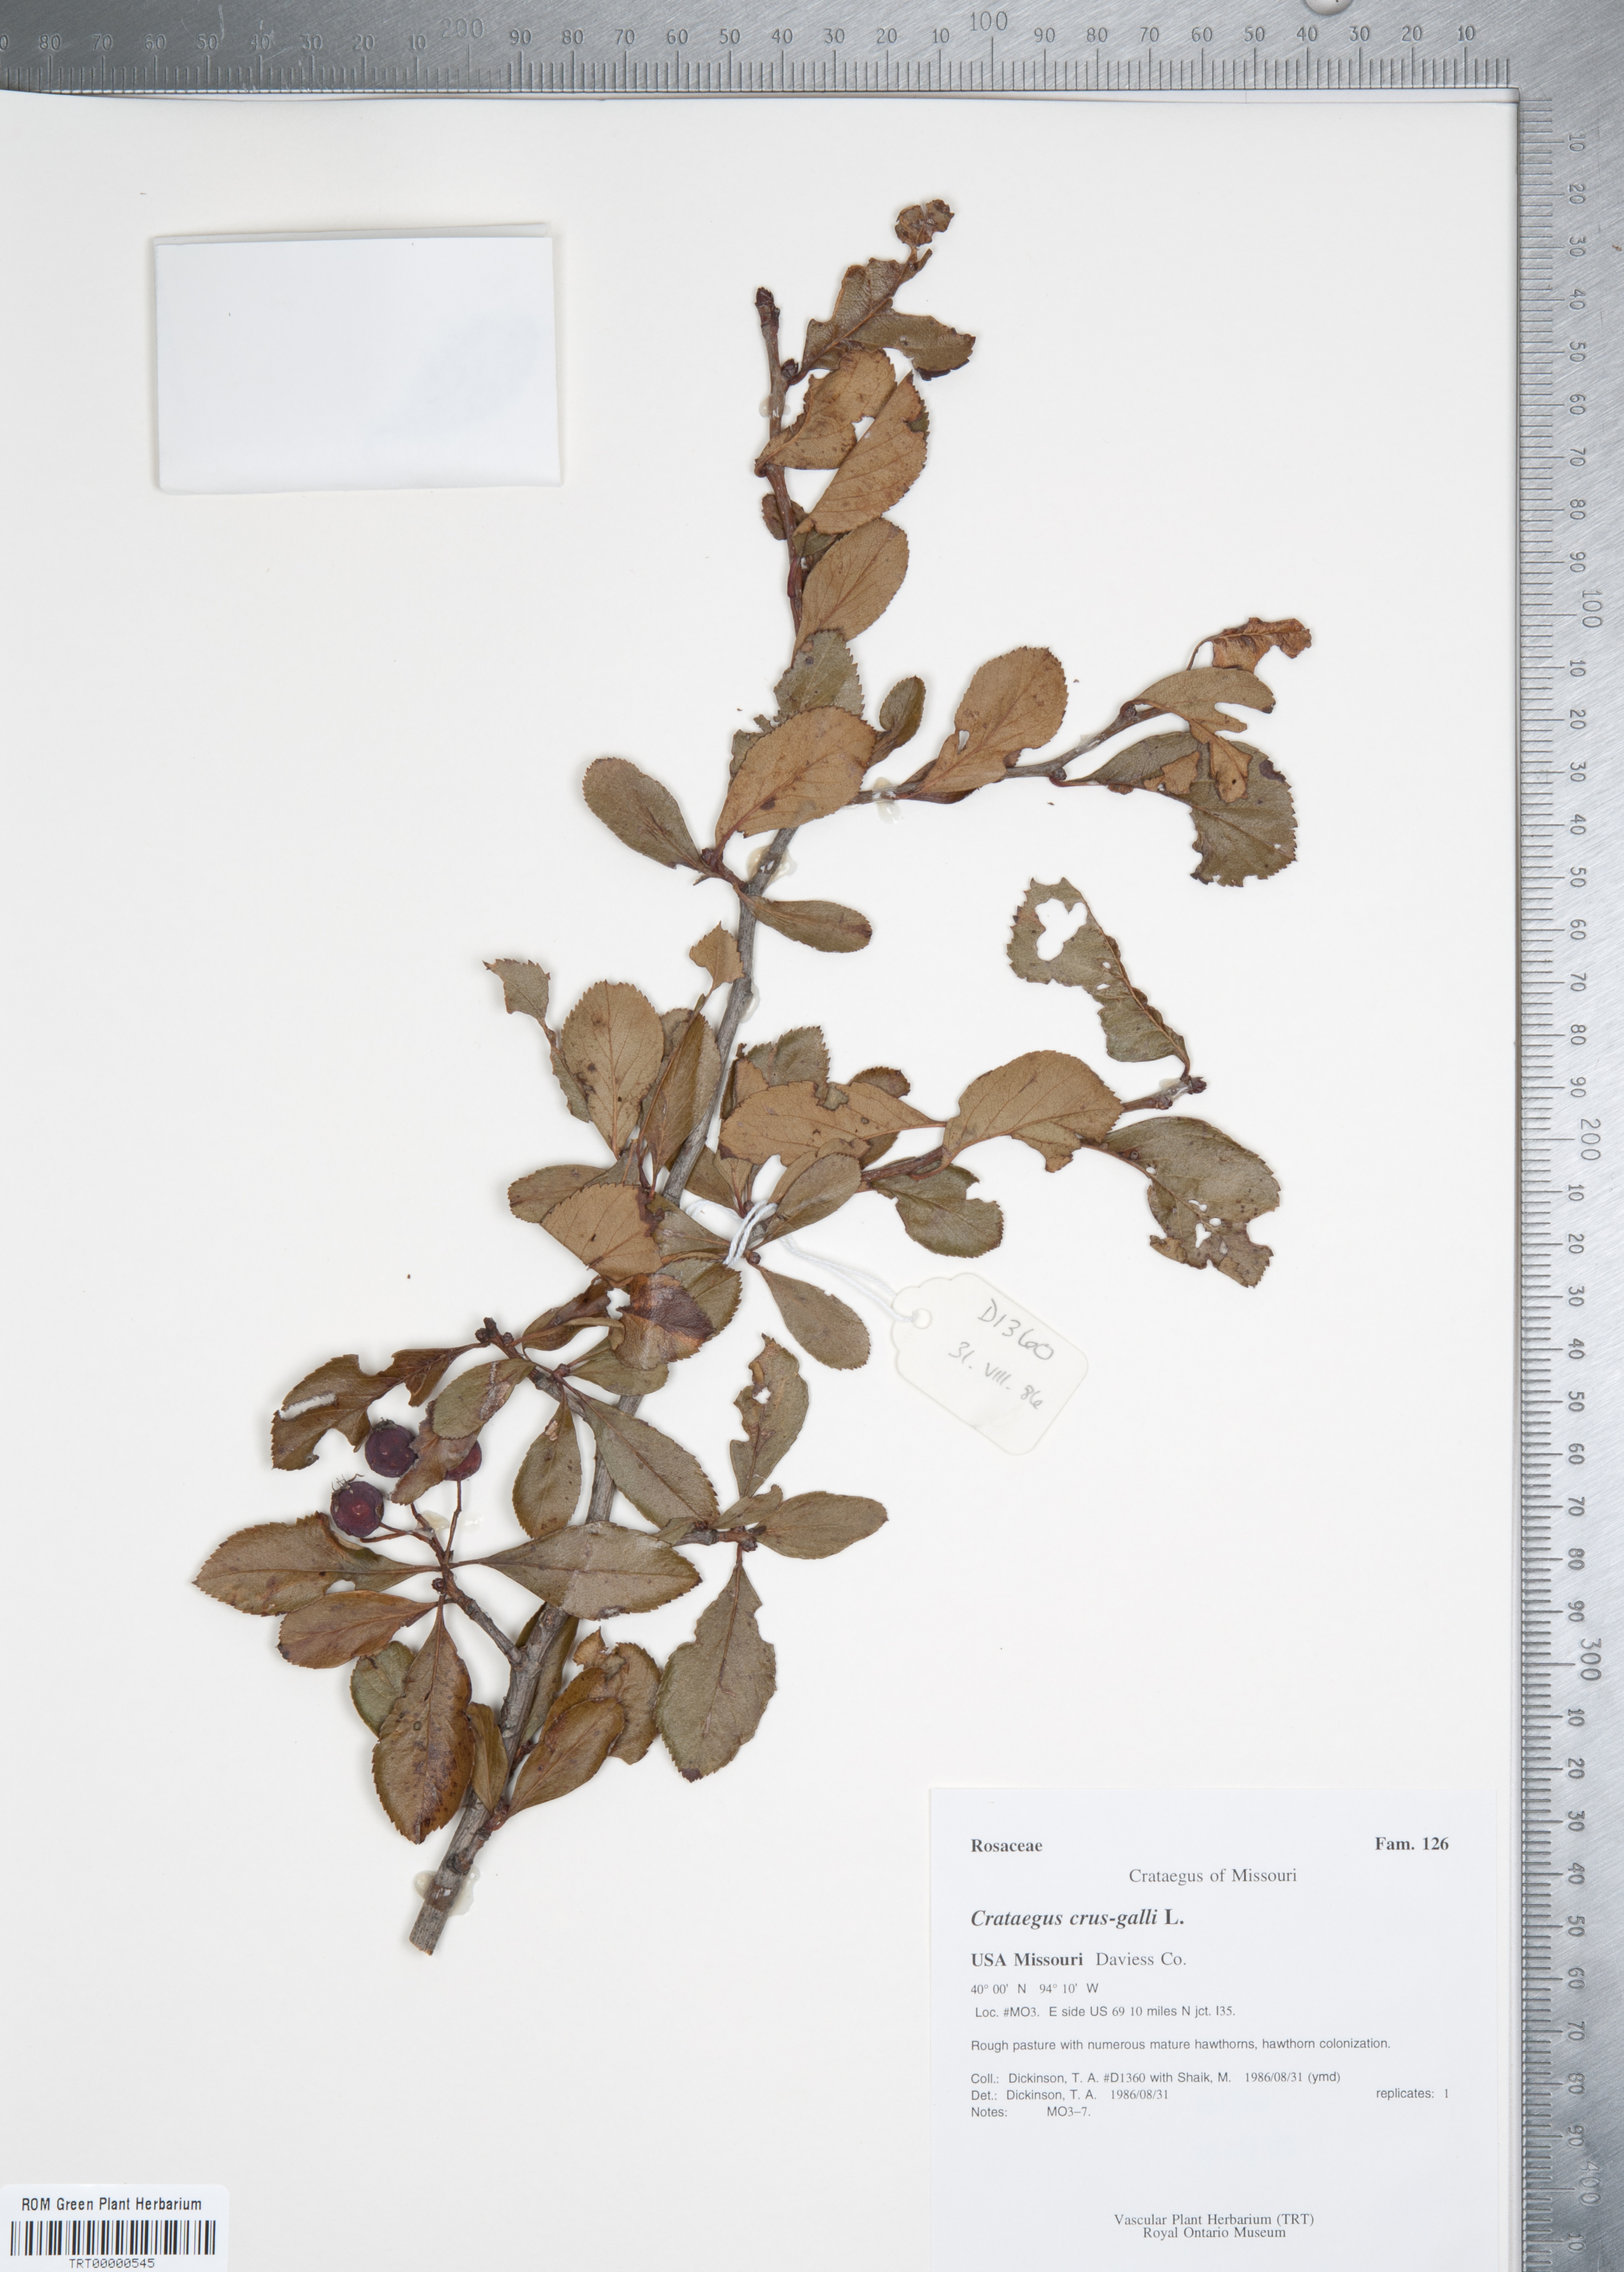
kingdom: Plantae
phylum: Tracheophyta
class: Magnoliopsida
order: Rosales
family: Rosaceae
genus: Crataegus
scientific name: Crataegus crus-galli
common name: Cockspurthorn
